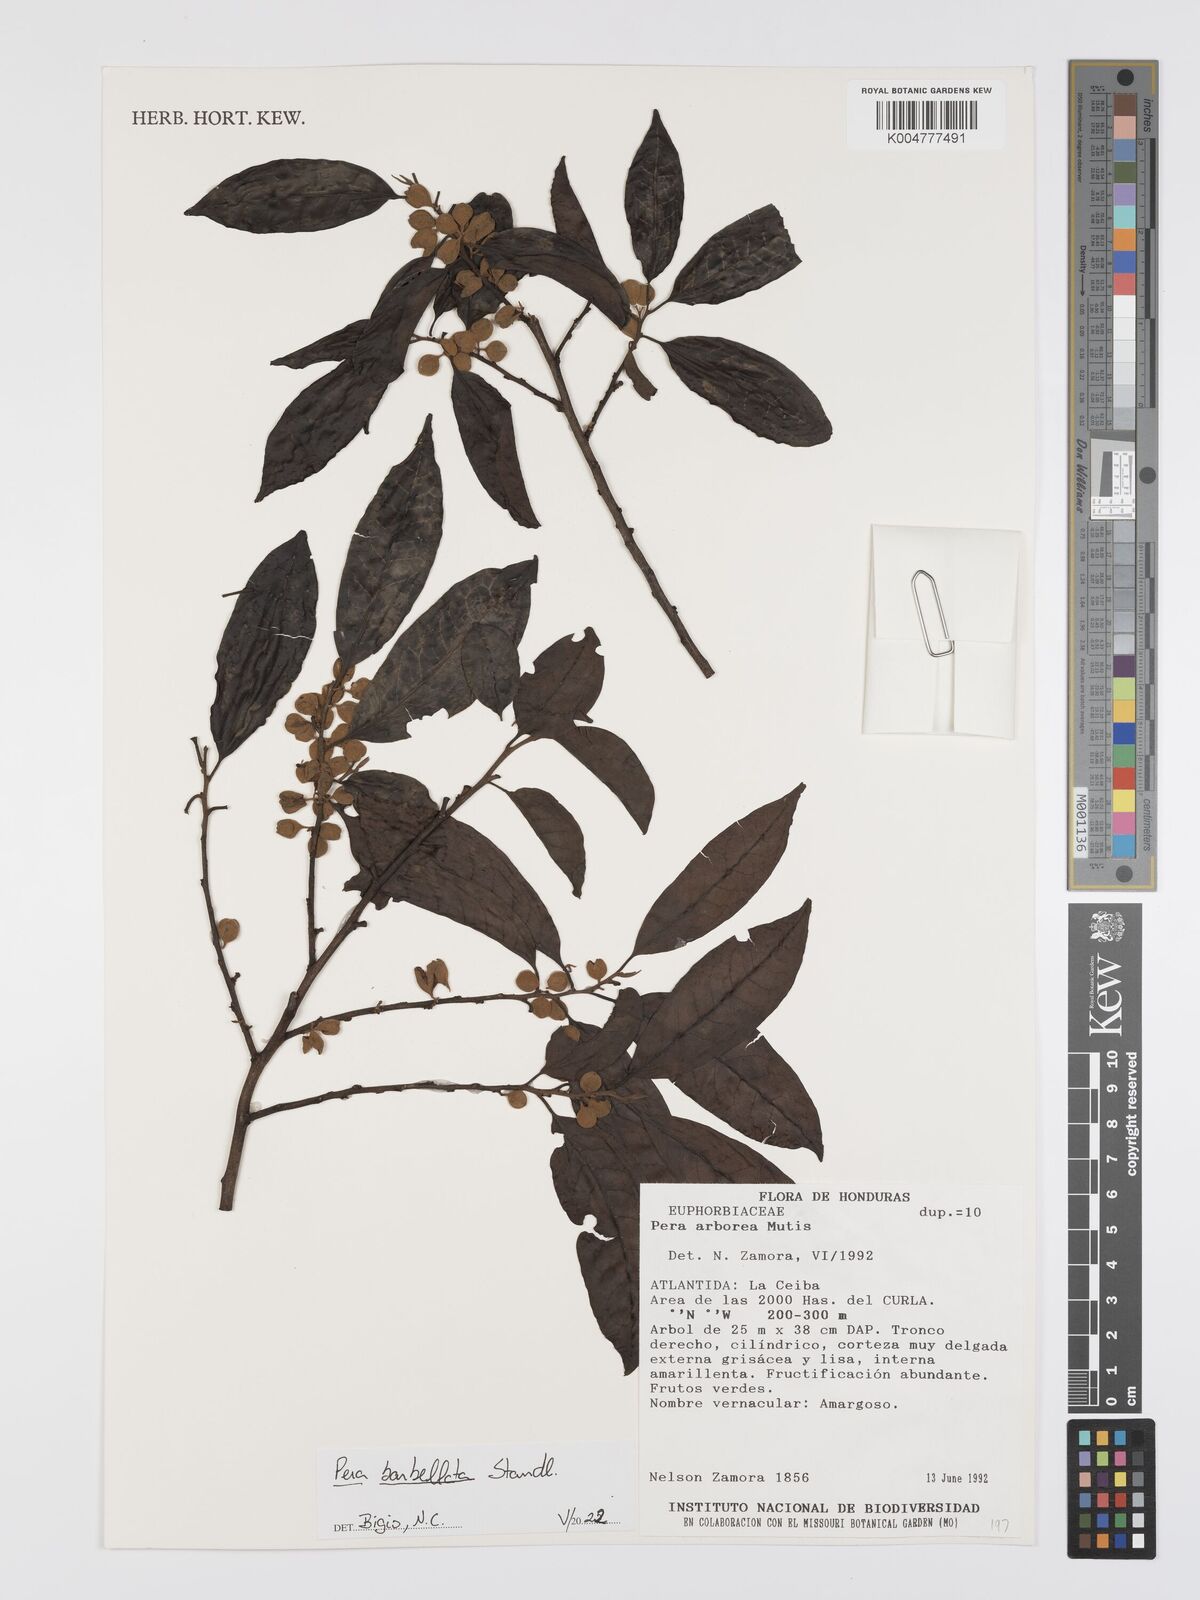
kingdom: Plantae
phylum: Tracheophyta
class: Magnoliopsida
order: Malpighiales
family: Peraceae
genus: Pera
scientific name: Pera barbellata
